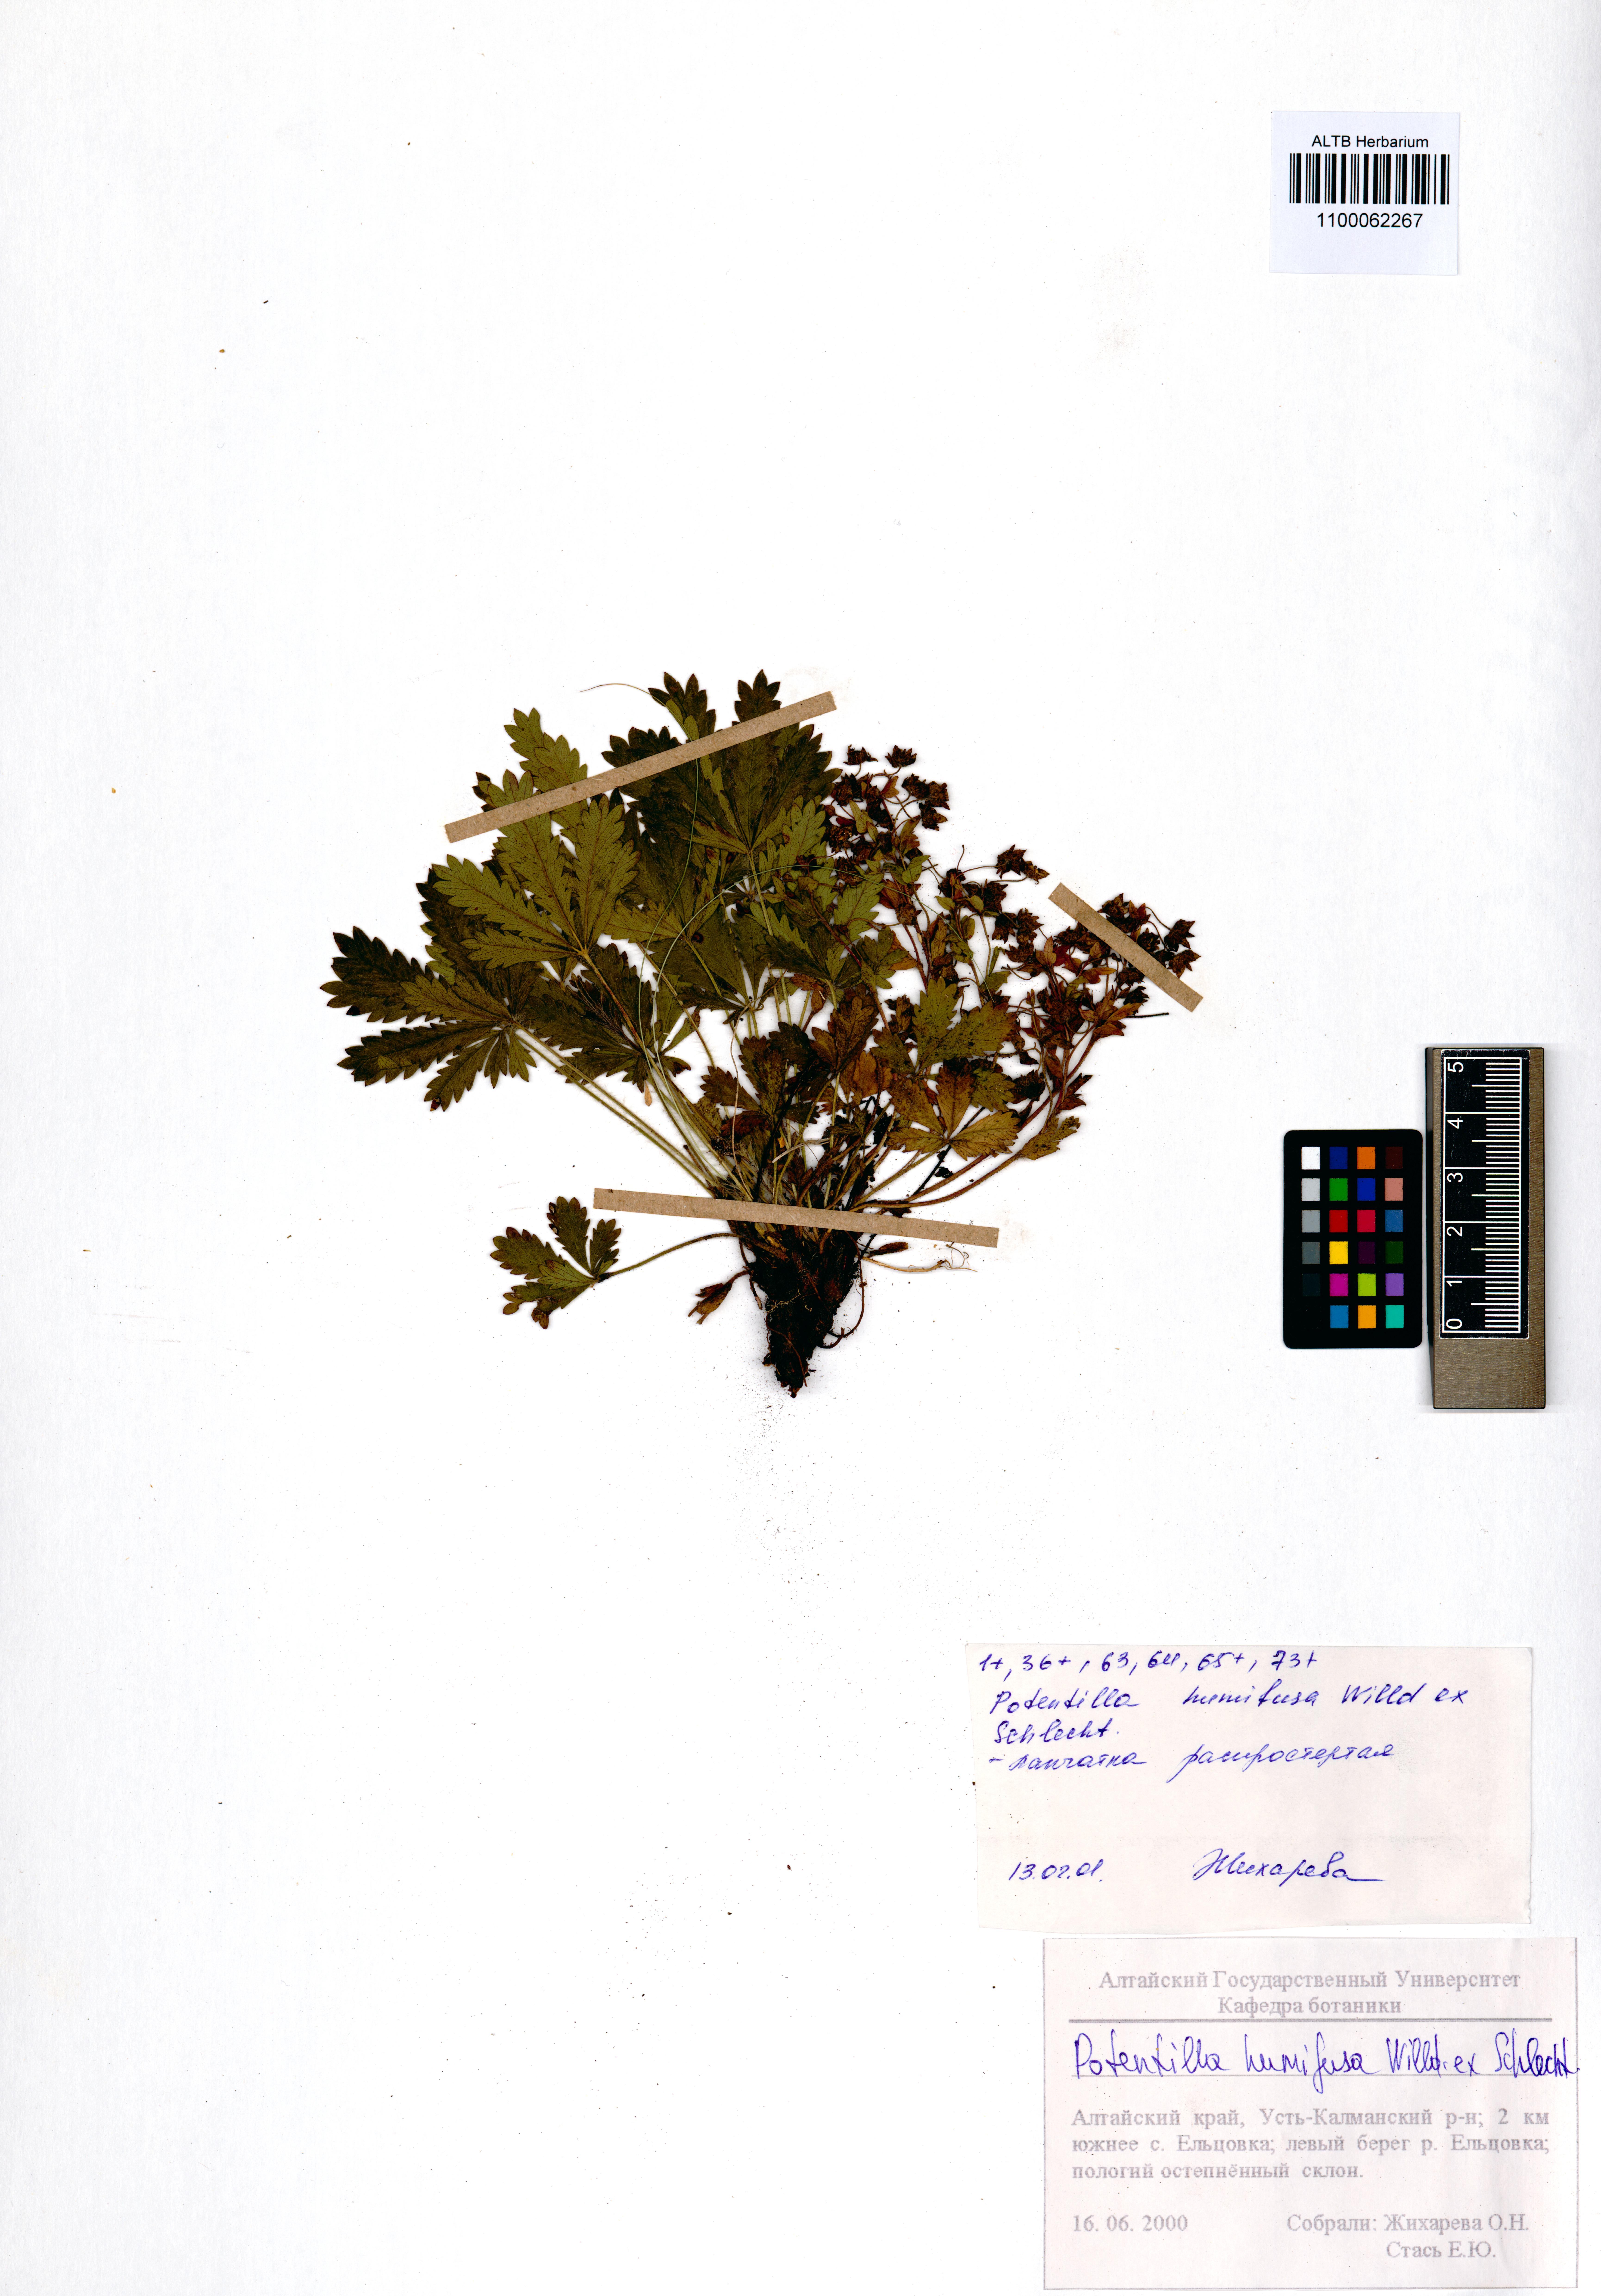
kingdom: Plantae
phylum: Tracheophyta
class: Magnoliopsida
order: Rosales
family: Rosaceae
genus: Potentilla
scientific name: Potentilla humifusa
